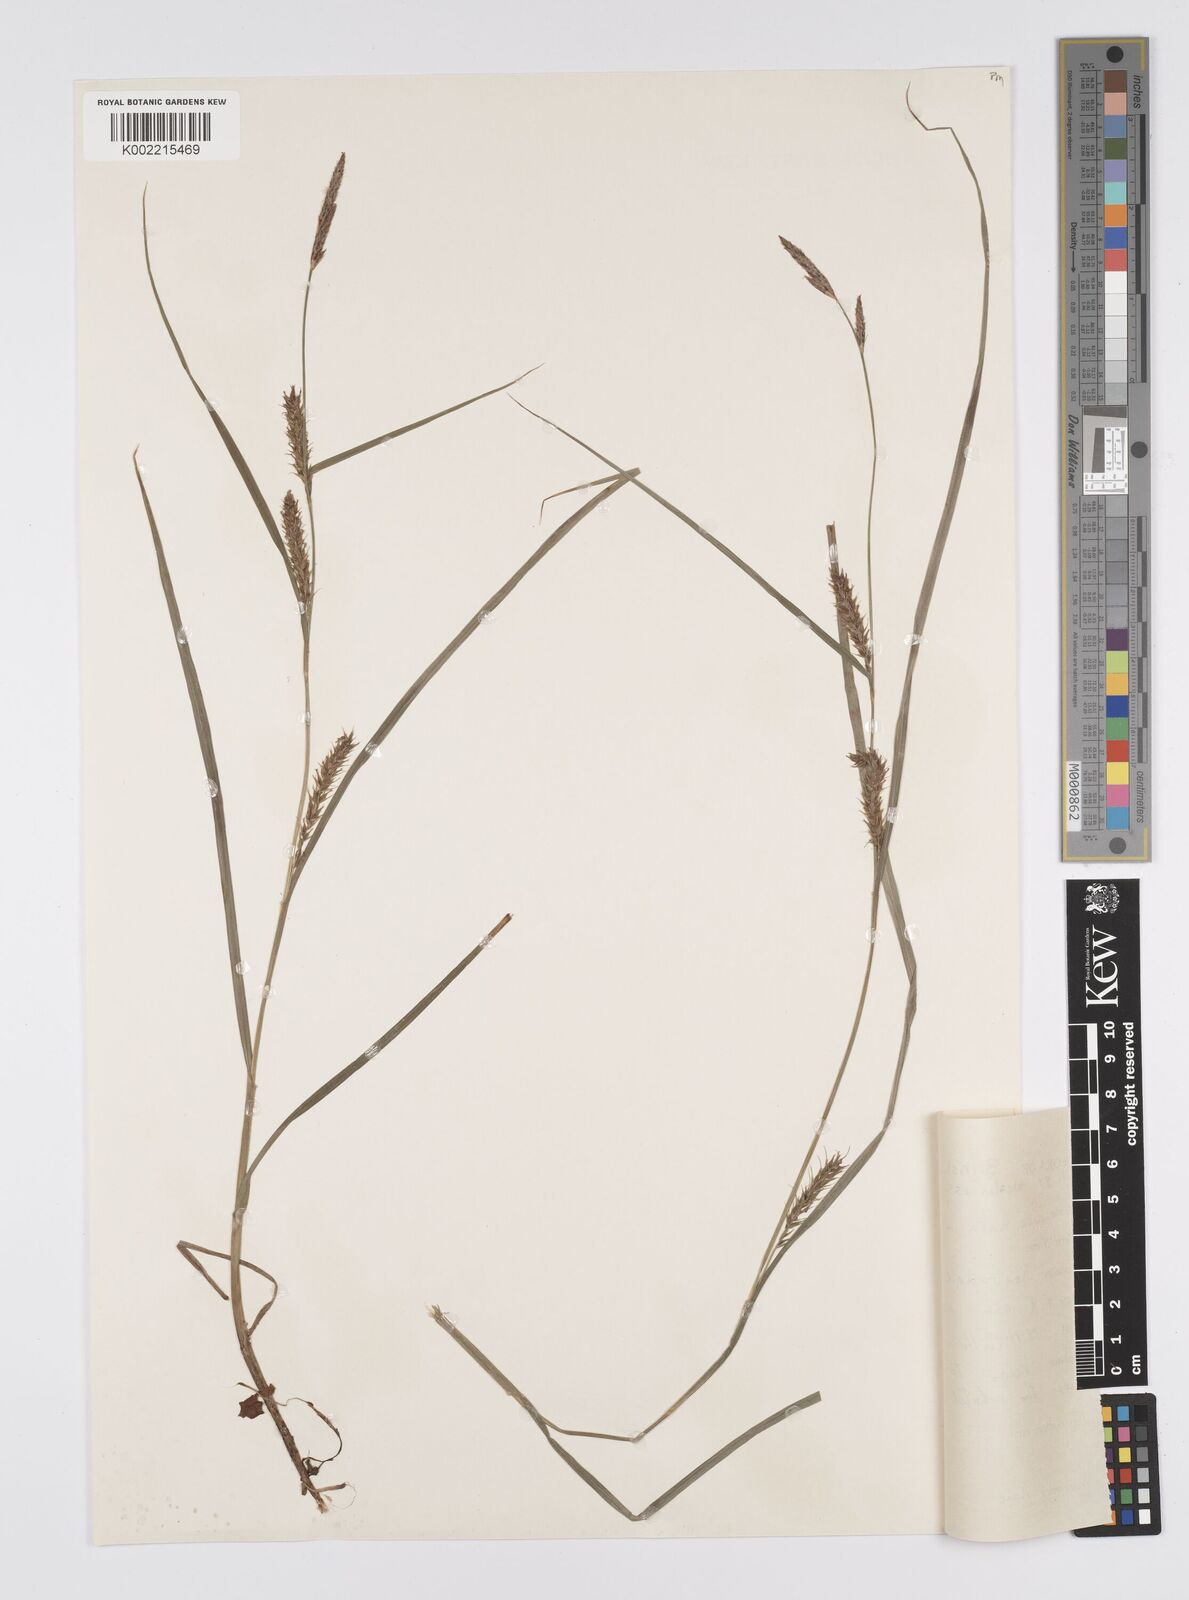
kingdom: Plantae
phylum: Tracheophyta
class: Liliopsida
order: Poales
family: Cyperaceae
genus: Carex
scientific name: Carex hirta
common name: Hairy sedge
